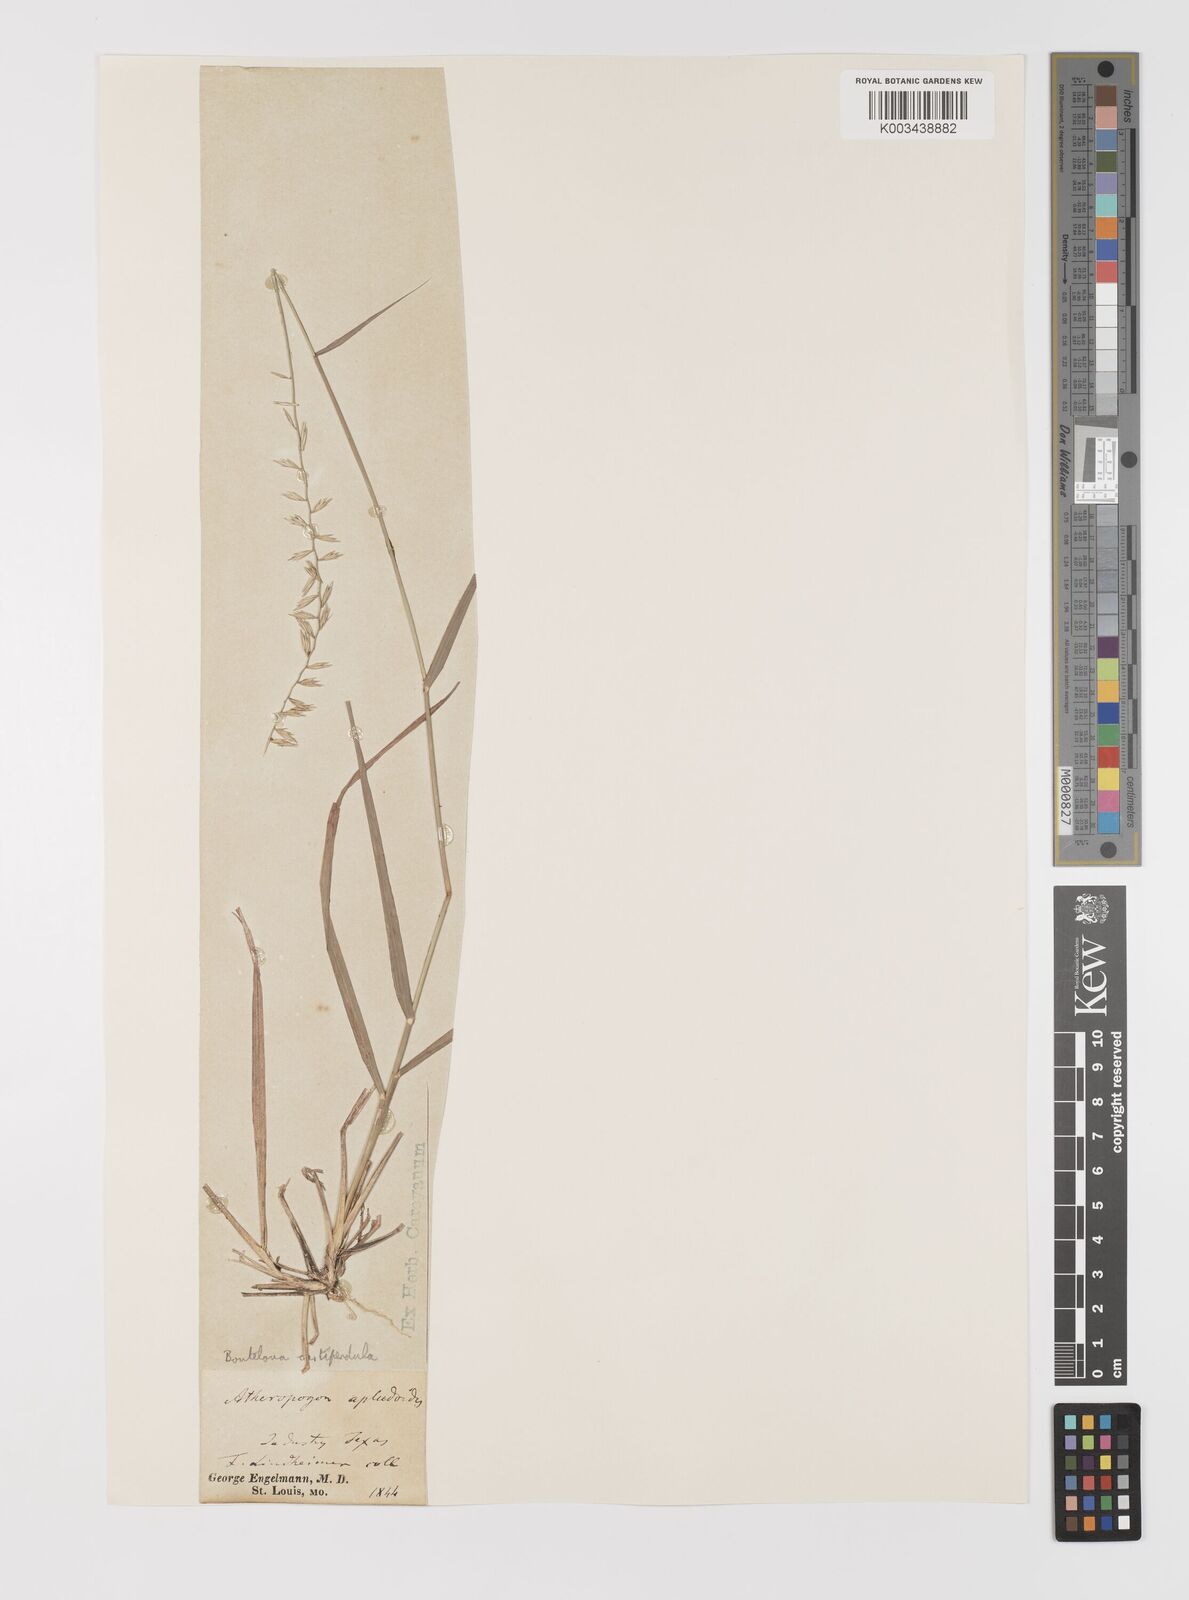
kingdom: Plantae
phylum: Tracheophyta
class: Liliopsida
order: Poales
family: Poaceae
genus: Bouteloua
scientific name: Bouteloua curtipendula
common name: Side-oats grama
